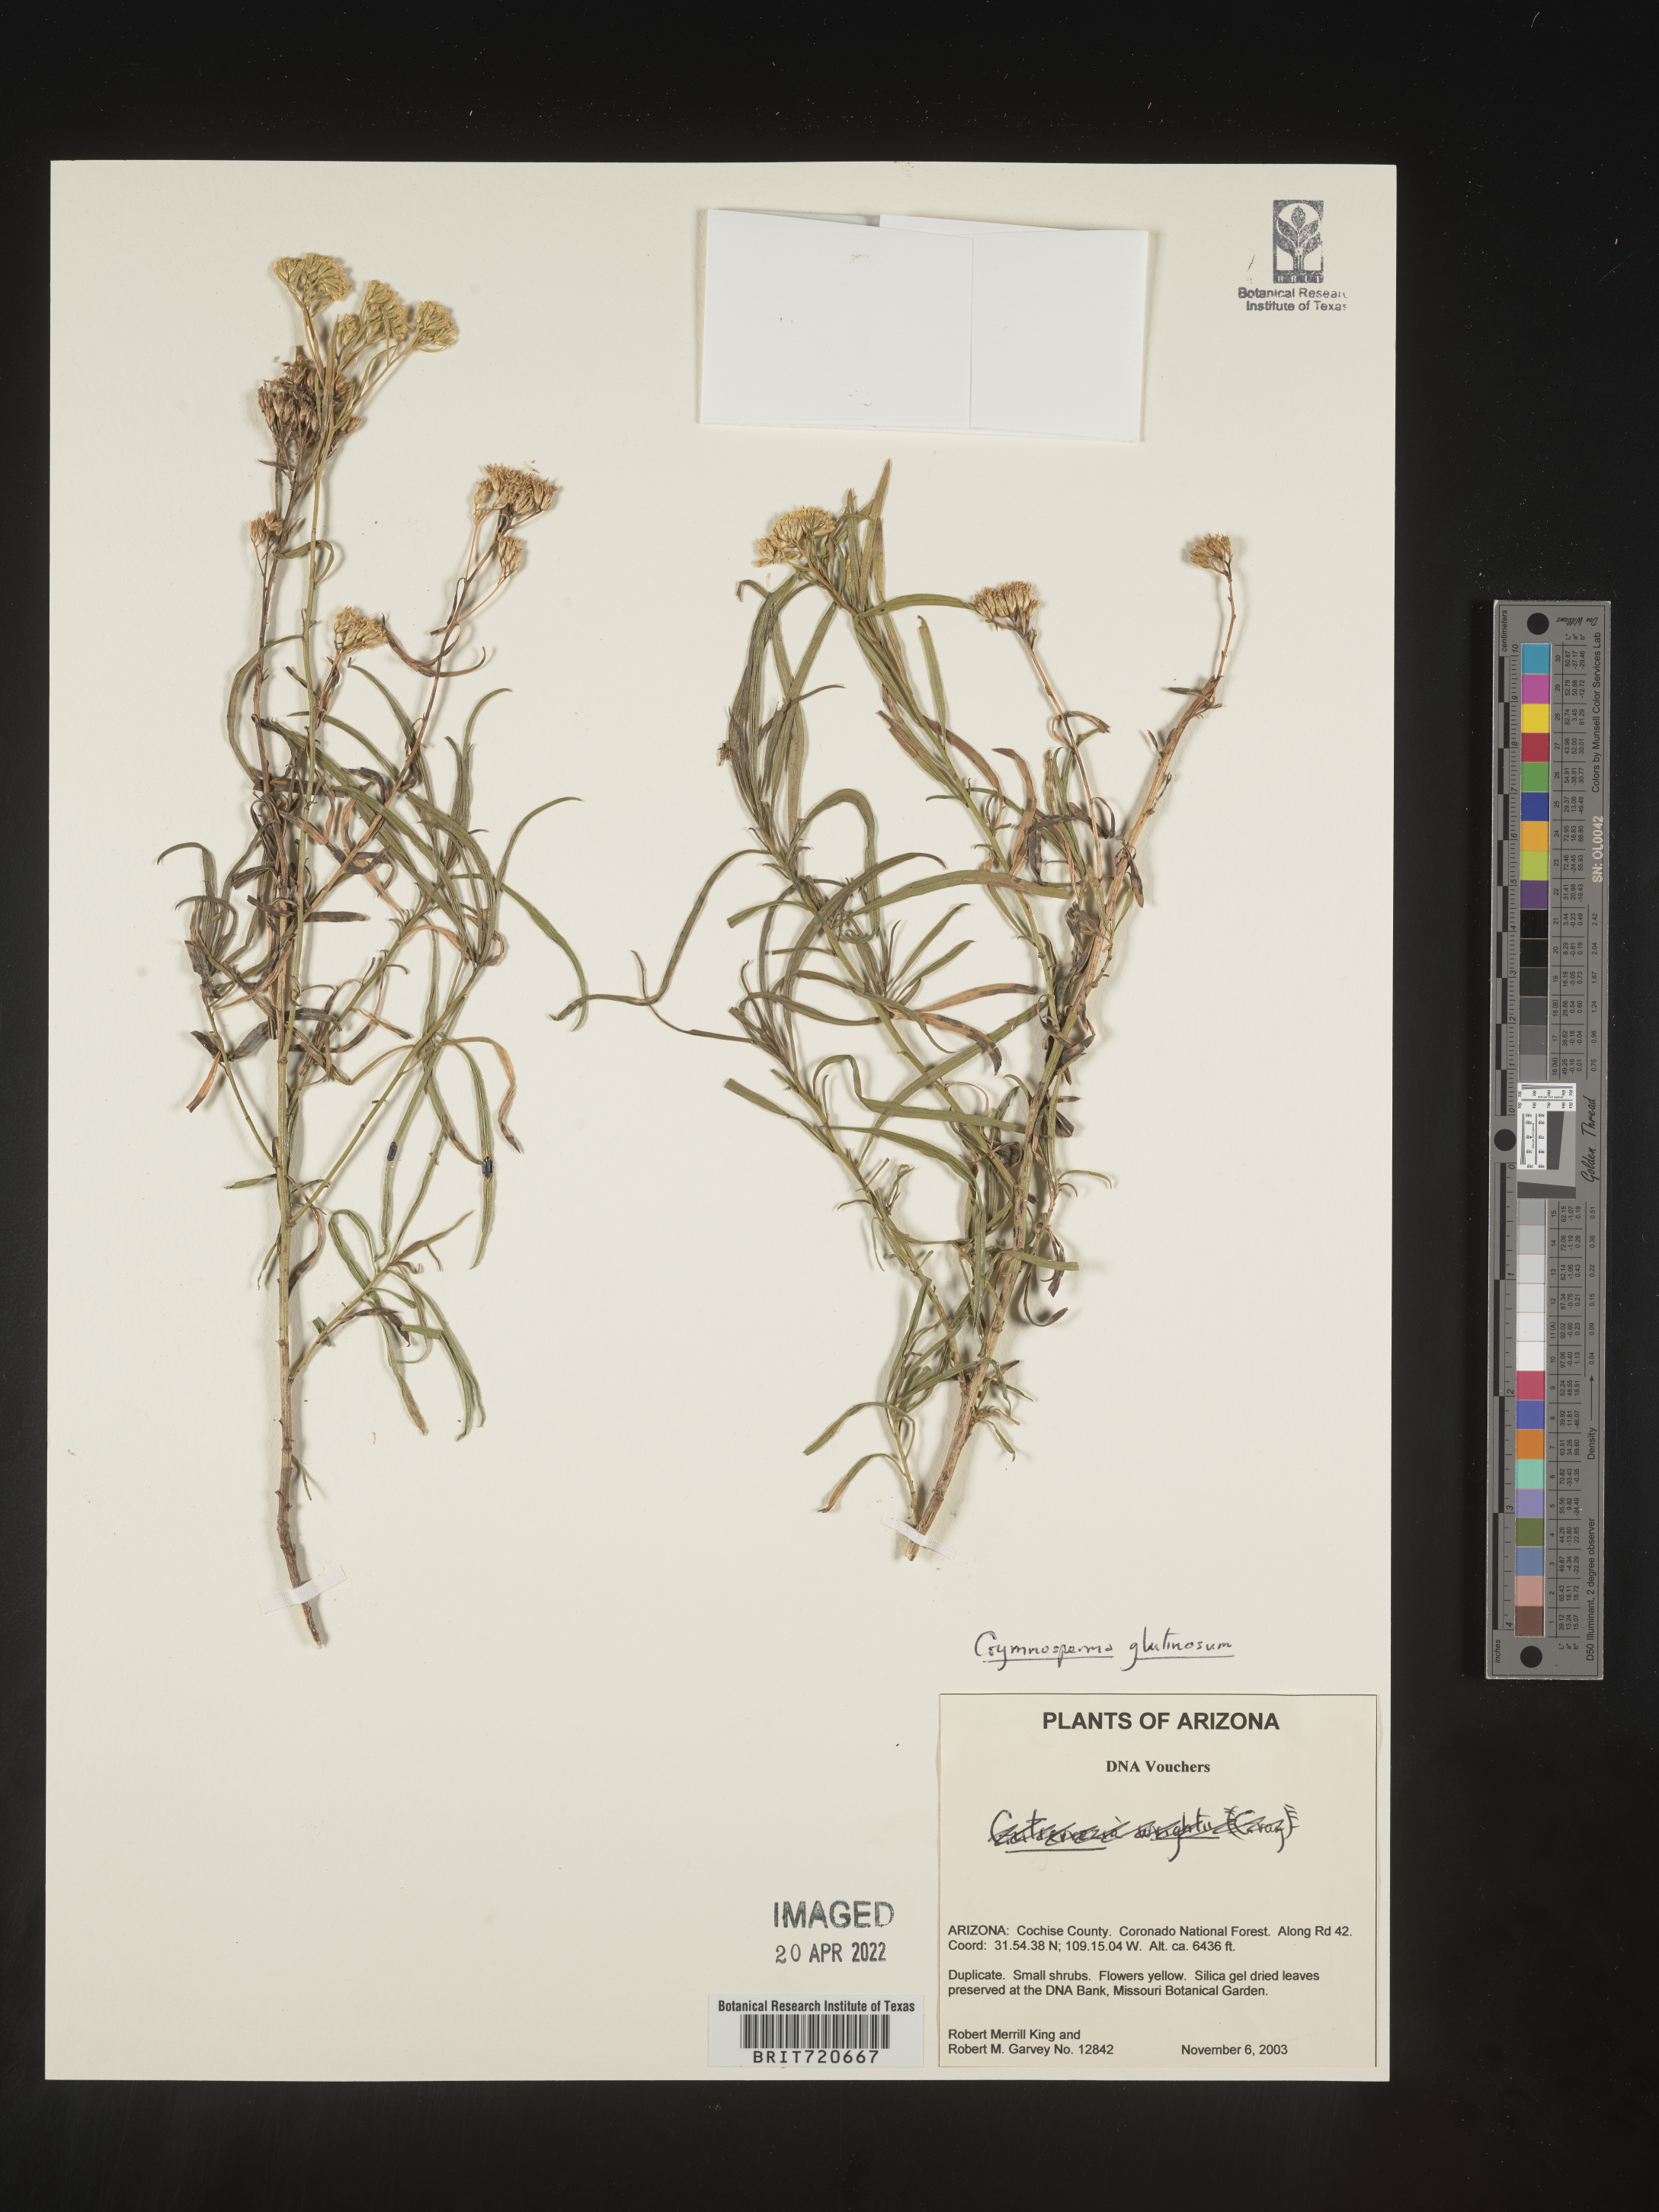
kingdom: Plantae
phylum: Tracheophyta
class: Magnoliopsida
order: Asterales
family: Asteraceae
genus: Gymnosperma
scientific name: Gymnosperma glutinosum
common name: Gumhead
